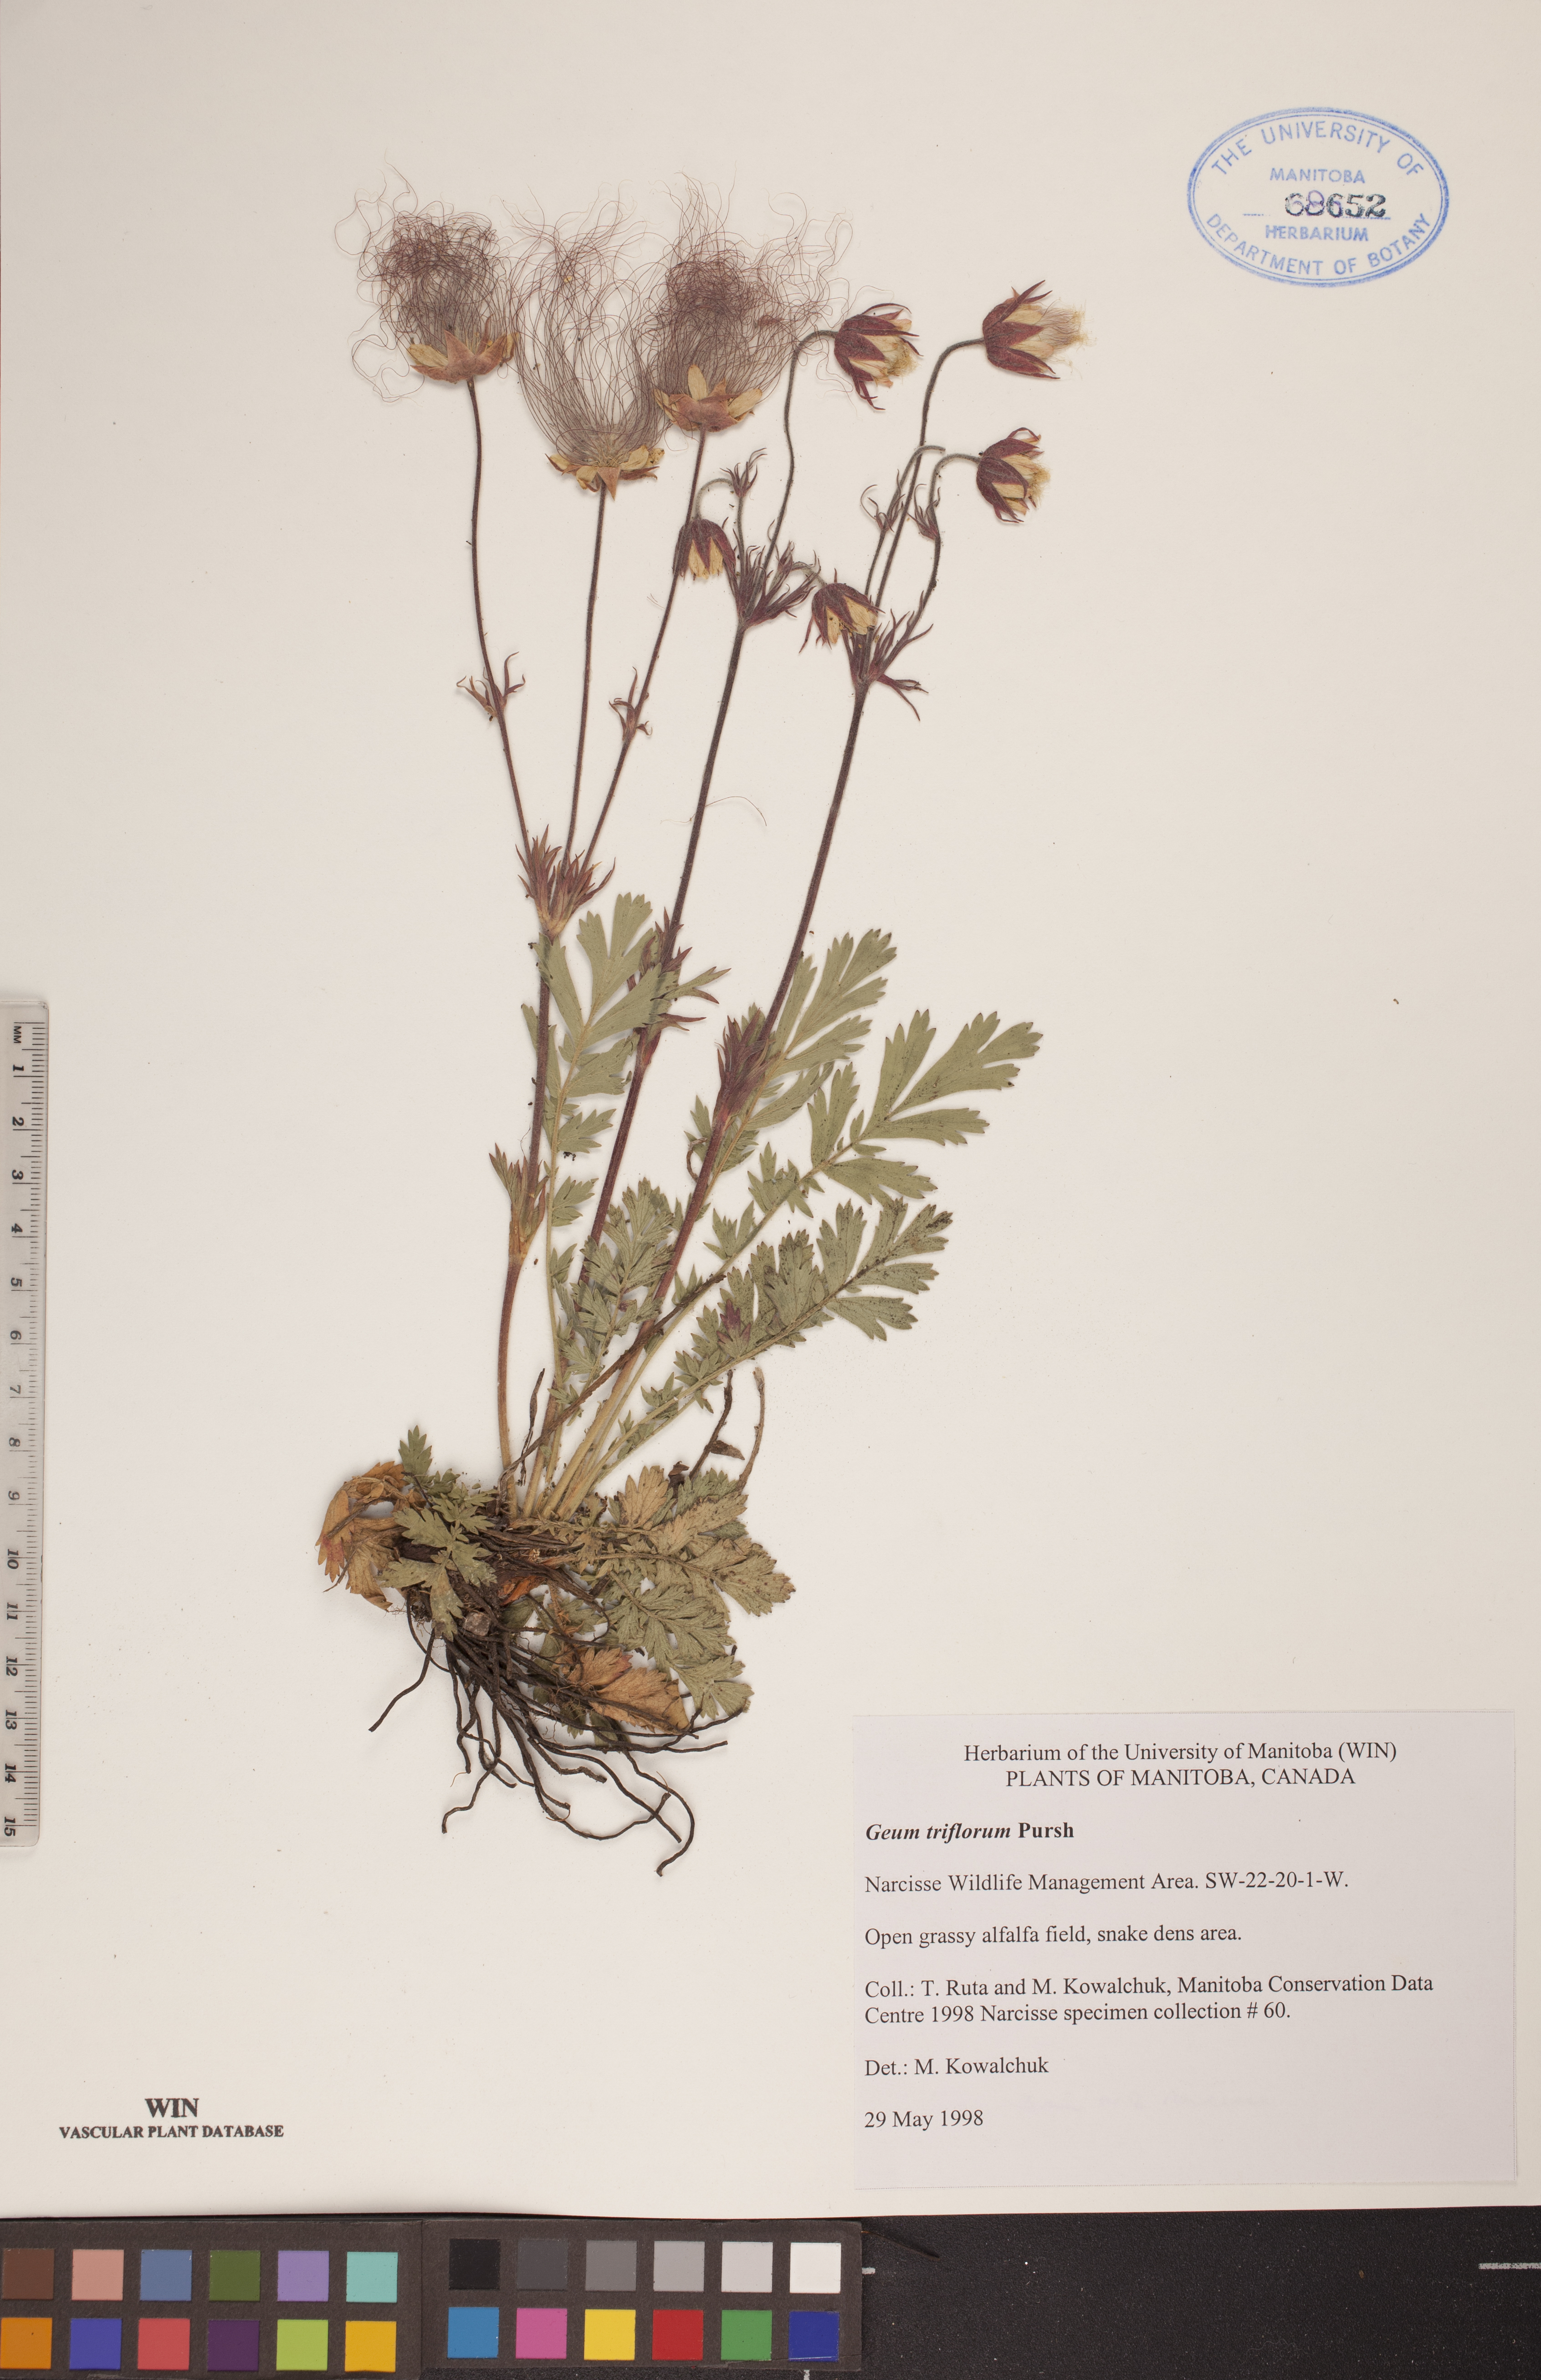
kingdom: Plantae
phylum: Tracheophyta
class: Magnoliopsida
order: Rosales
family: Rosaceae
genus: Geum
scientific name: Geum triflorum
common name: Old man's whiskers
